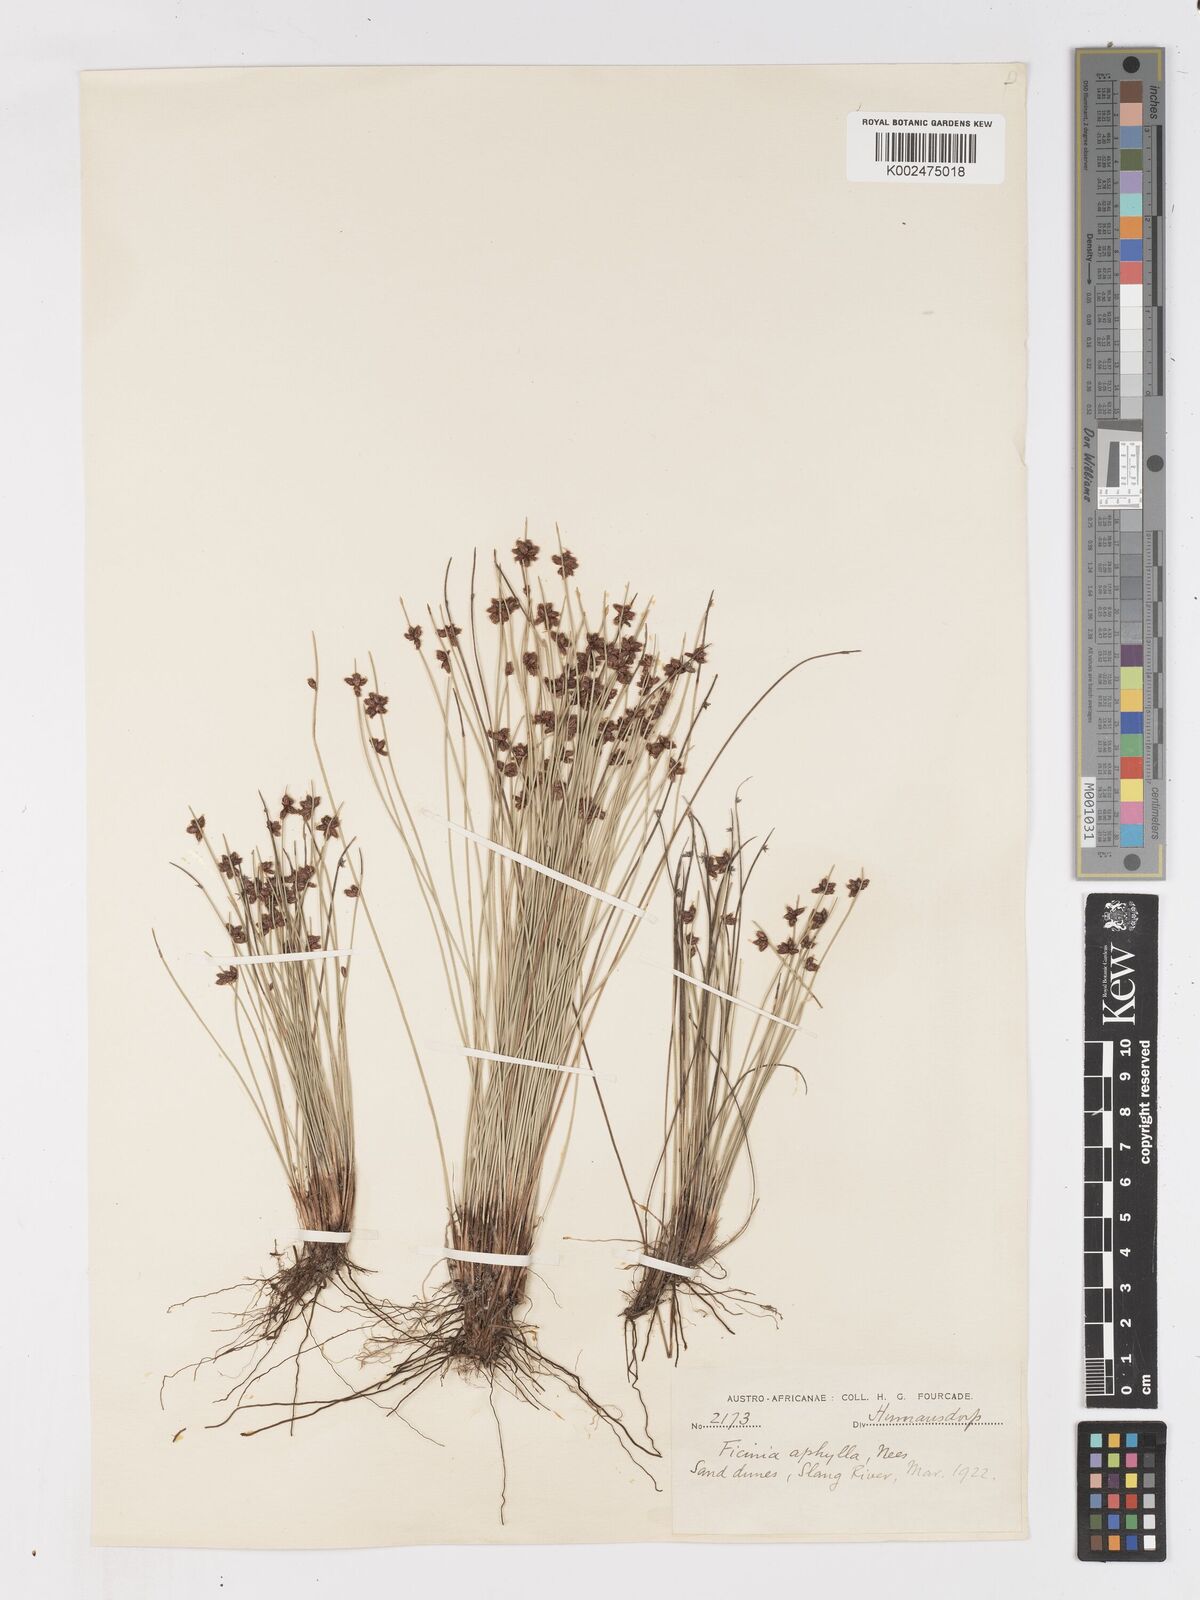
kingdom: Plantae
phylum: Tracheophyta
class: Liliopsida
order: Poales
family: Cyperaceae
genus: Ficinia
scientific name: Ficinia lateralis
